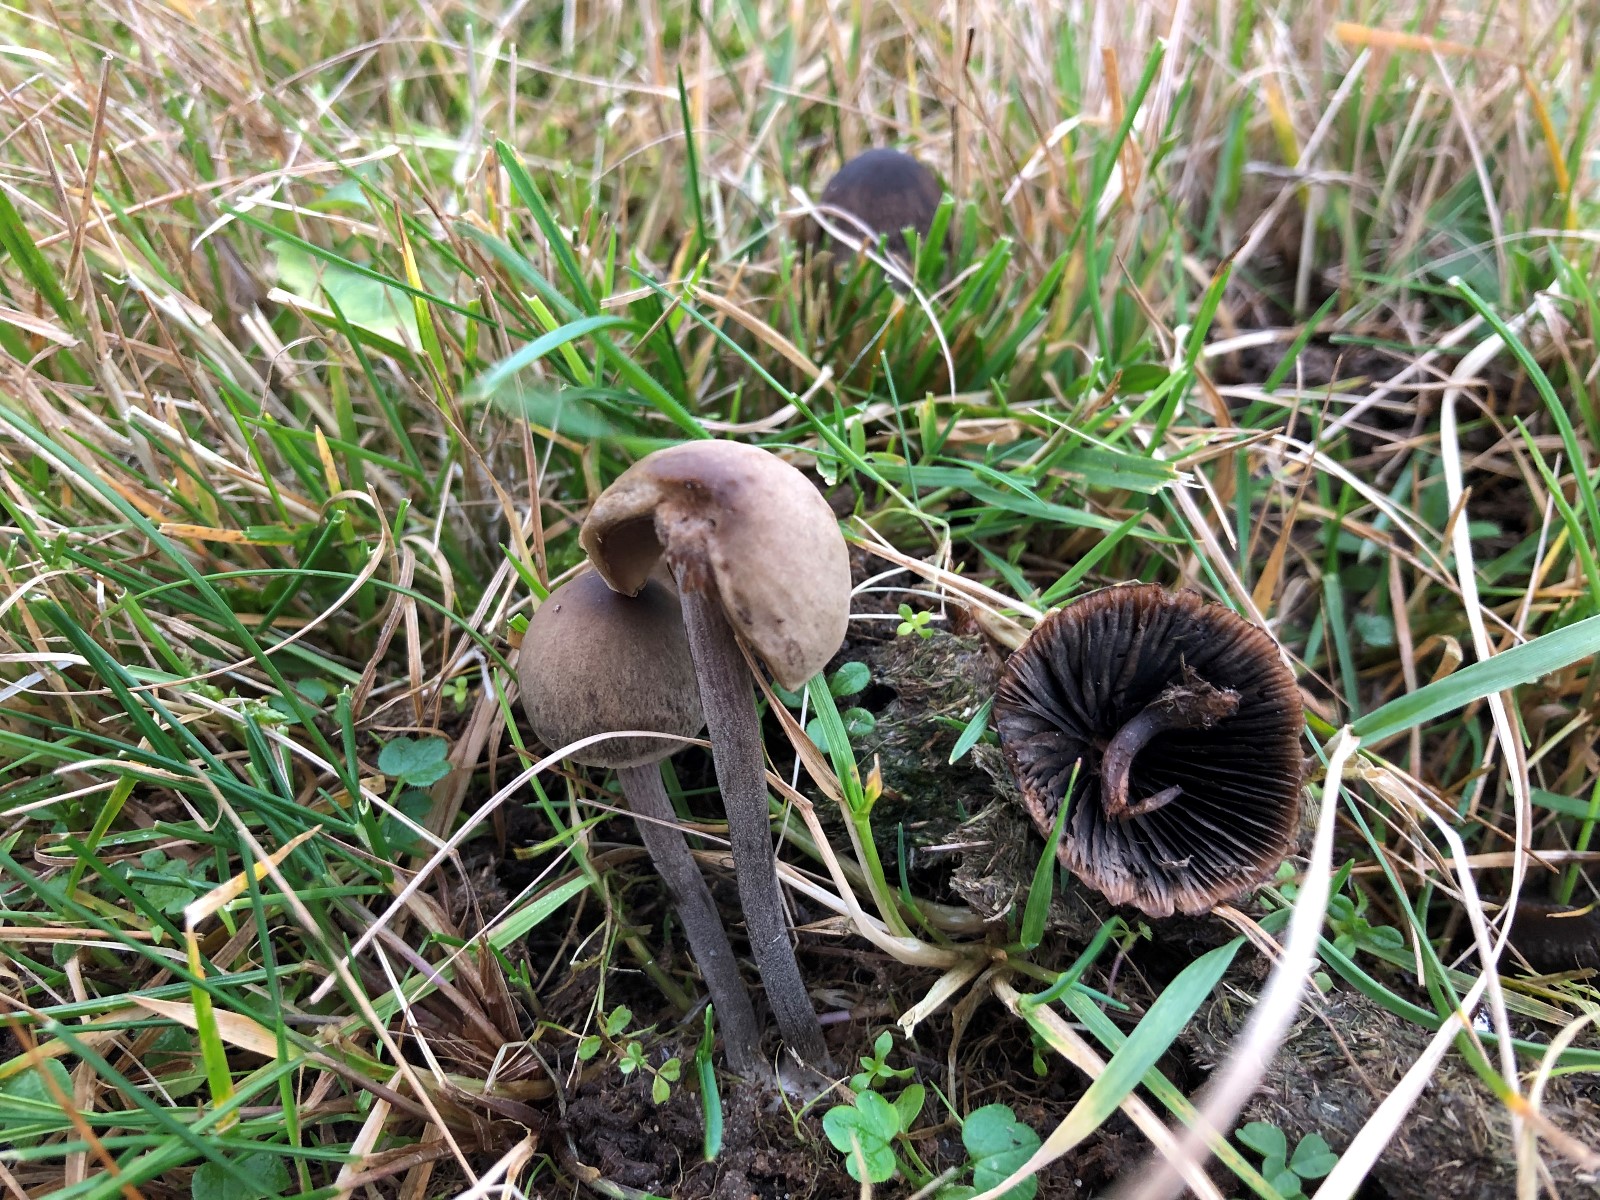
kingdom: Fungi
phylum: Basidiomycota
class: Agaricomycetes
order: Agaricales
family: Bolbitiaceae
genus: Panaeolus
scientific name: Panaeolus
